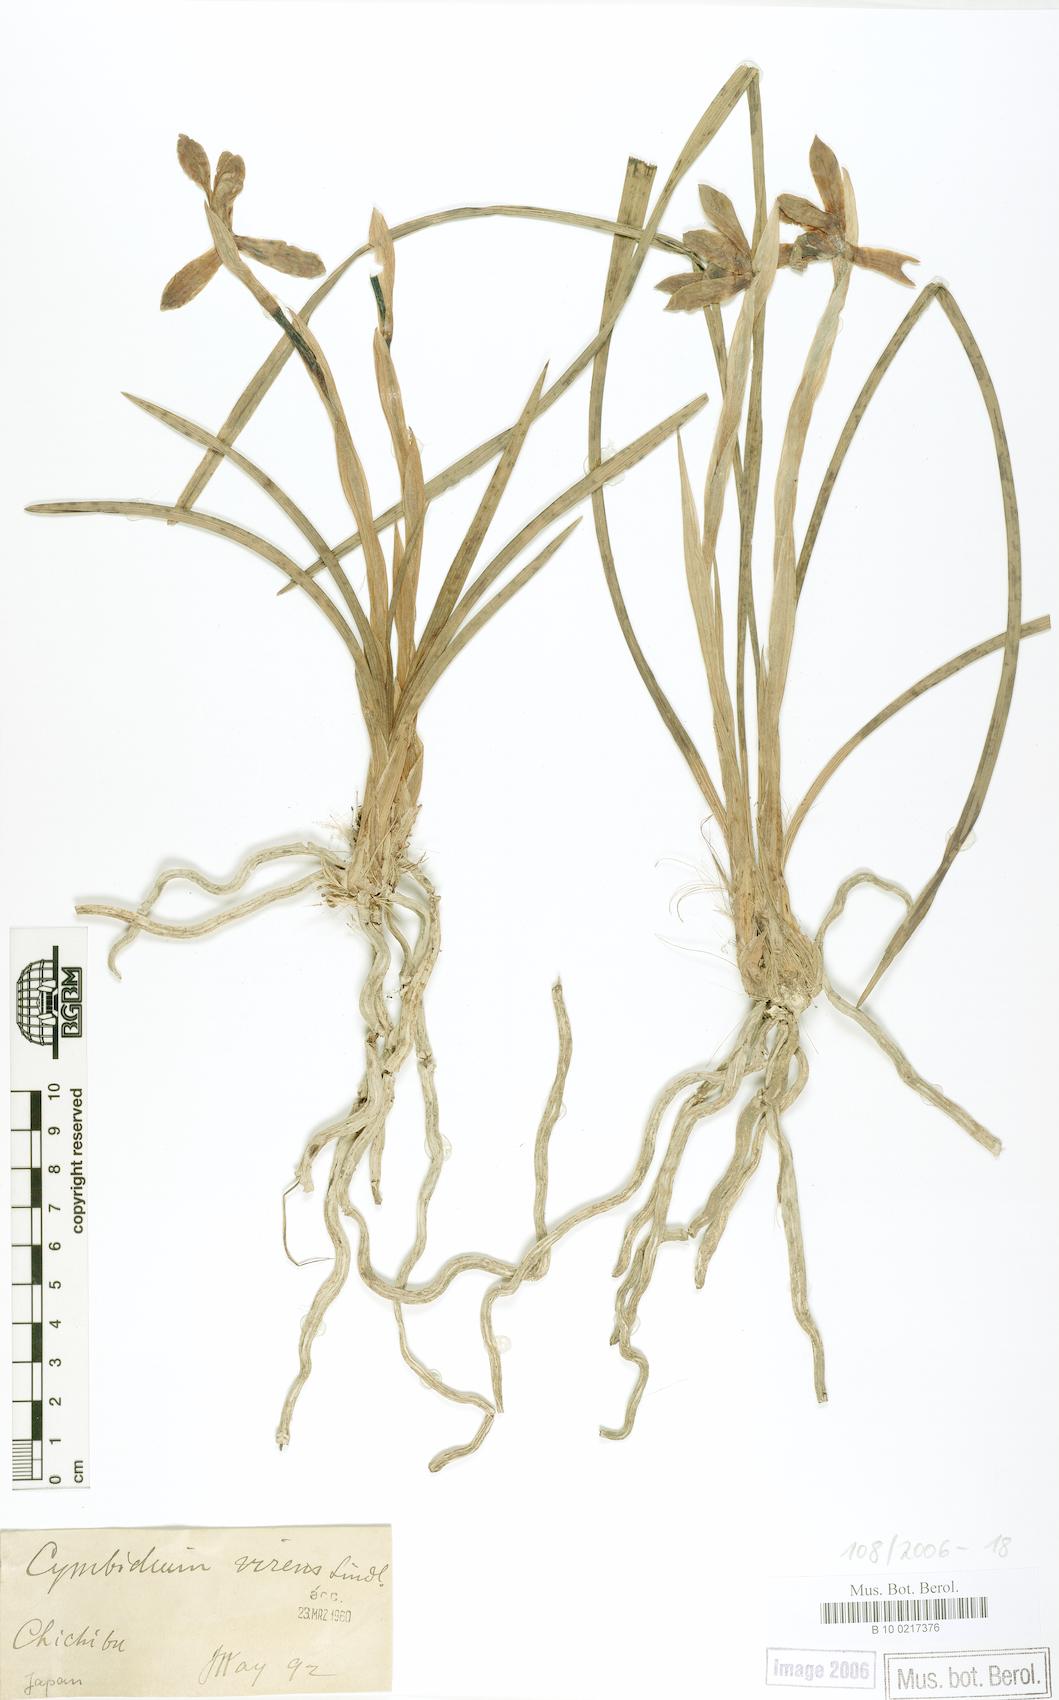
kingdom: Plantae
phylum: Tracheophyta
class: Liliopsida
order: Asparagales
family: Orchidaceae
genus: Cymbidium
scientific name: Cymbidium goeringii
